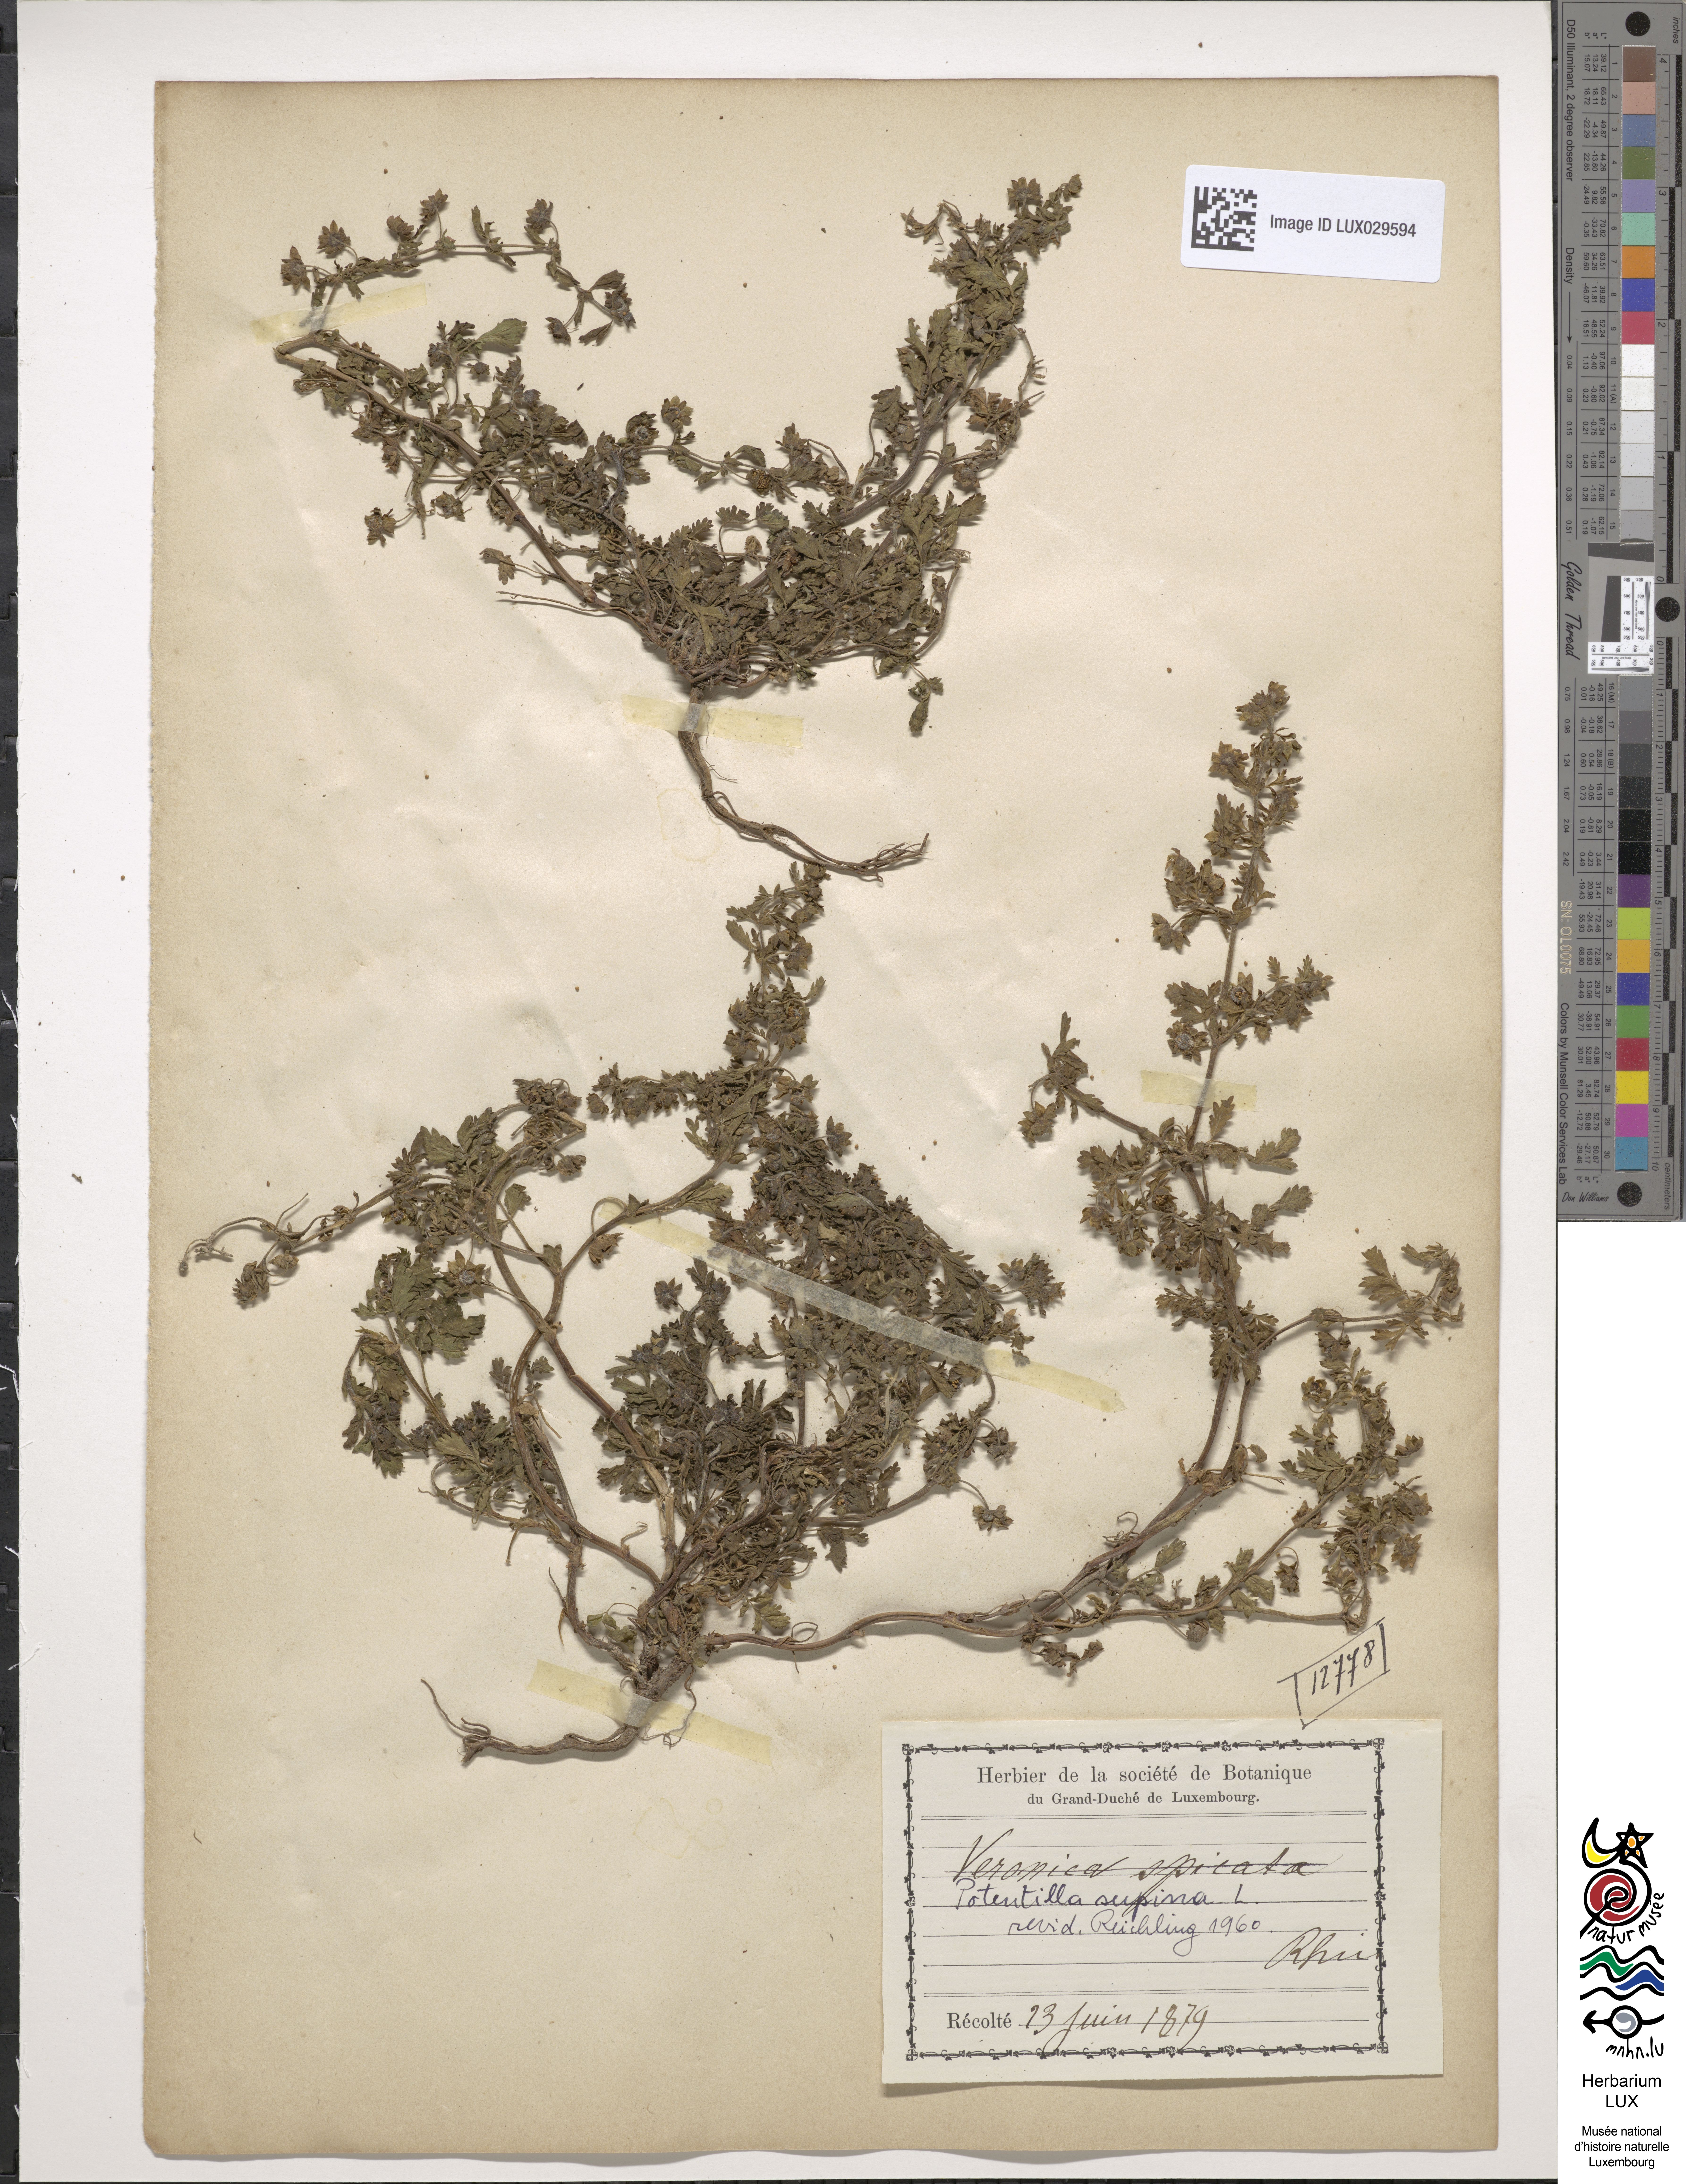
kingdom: Plantae
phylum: Tracheophyta
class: Magnoliopsida
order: Rosales
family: Rosaceae
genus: Potentilla
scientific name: Potentilla supina
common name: Prostrate cinquefoil
